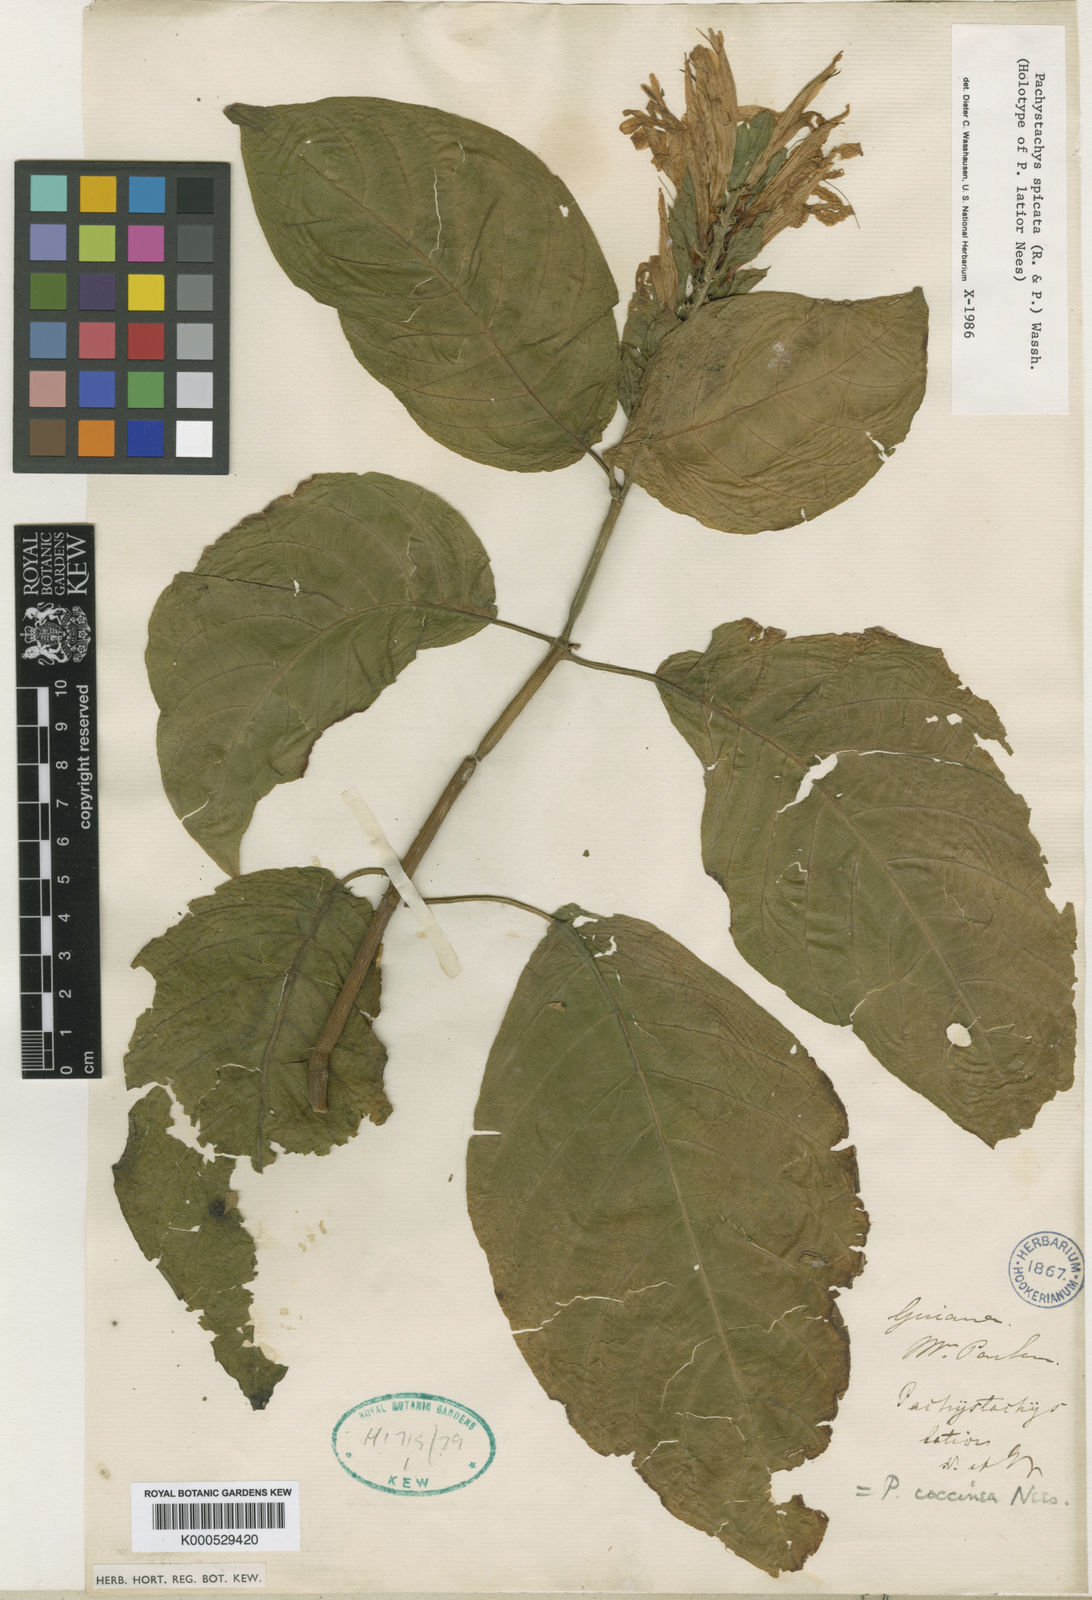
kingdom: Plantae
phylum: Tracheophyta
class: Magnoliopsida
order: Lamiales
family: Acanthaceae
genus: Pachystachys
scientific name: Pachystachys spicata
